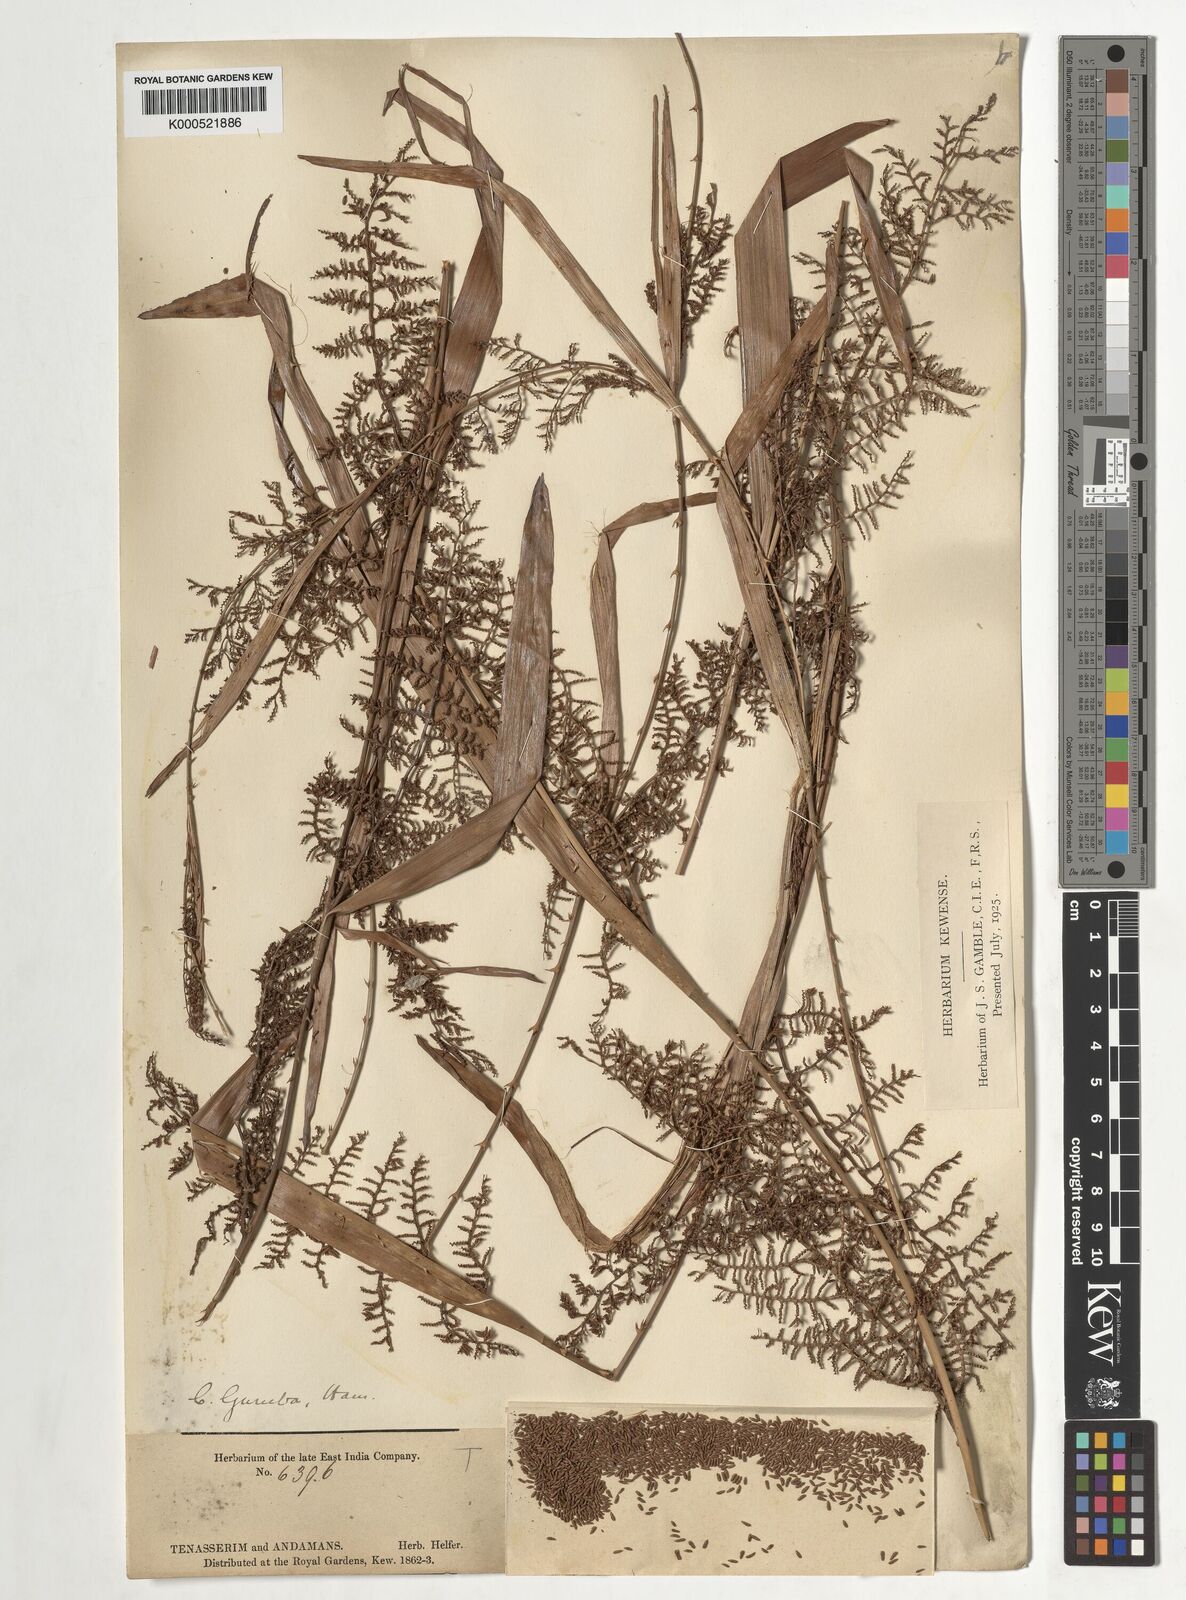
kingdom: Plantae
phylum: Tracheophyta
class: Liliopsida
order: Arecales
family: Arecaceae
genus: Calamus
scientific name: Calamus
